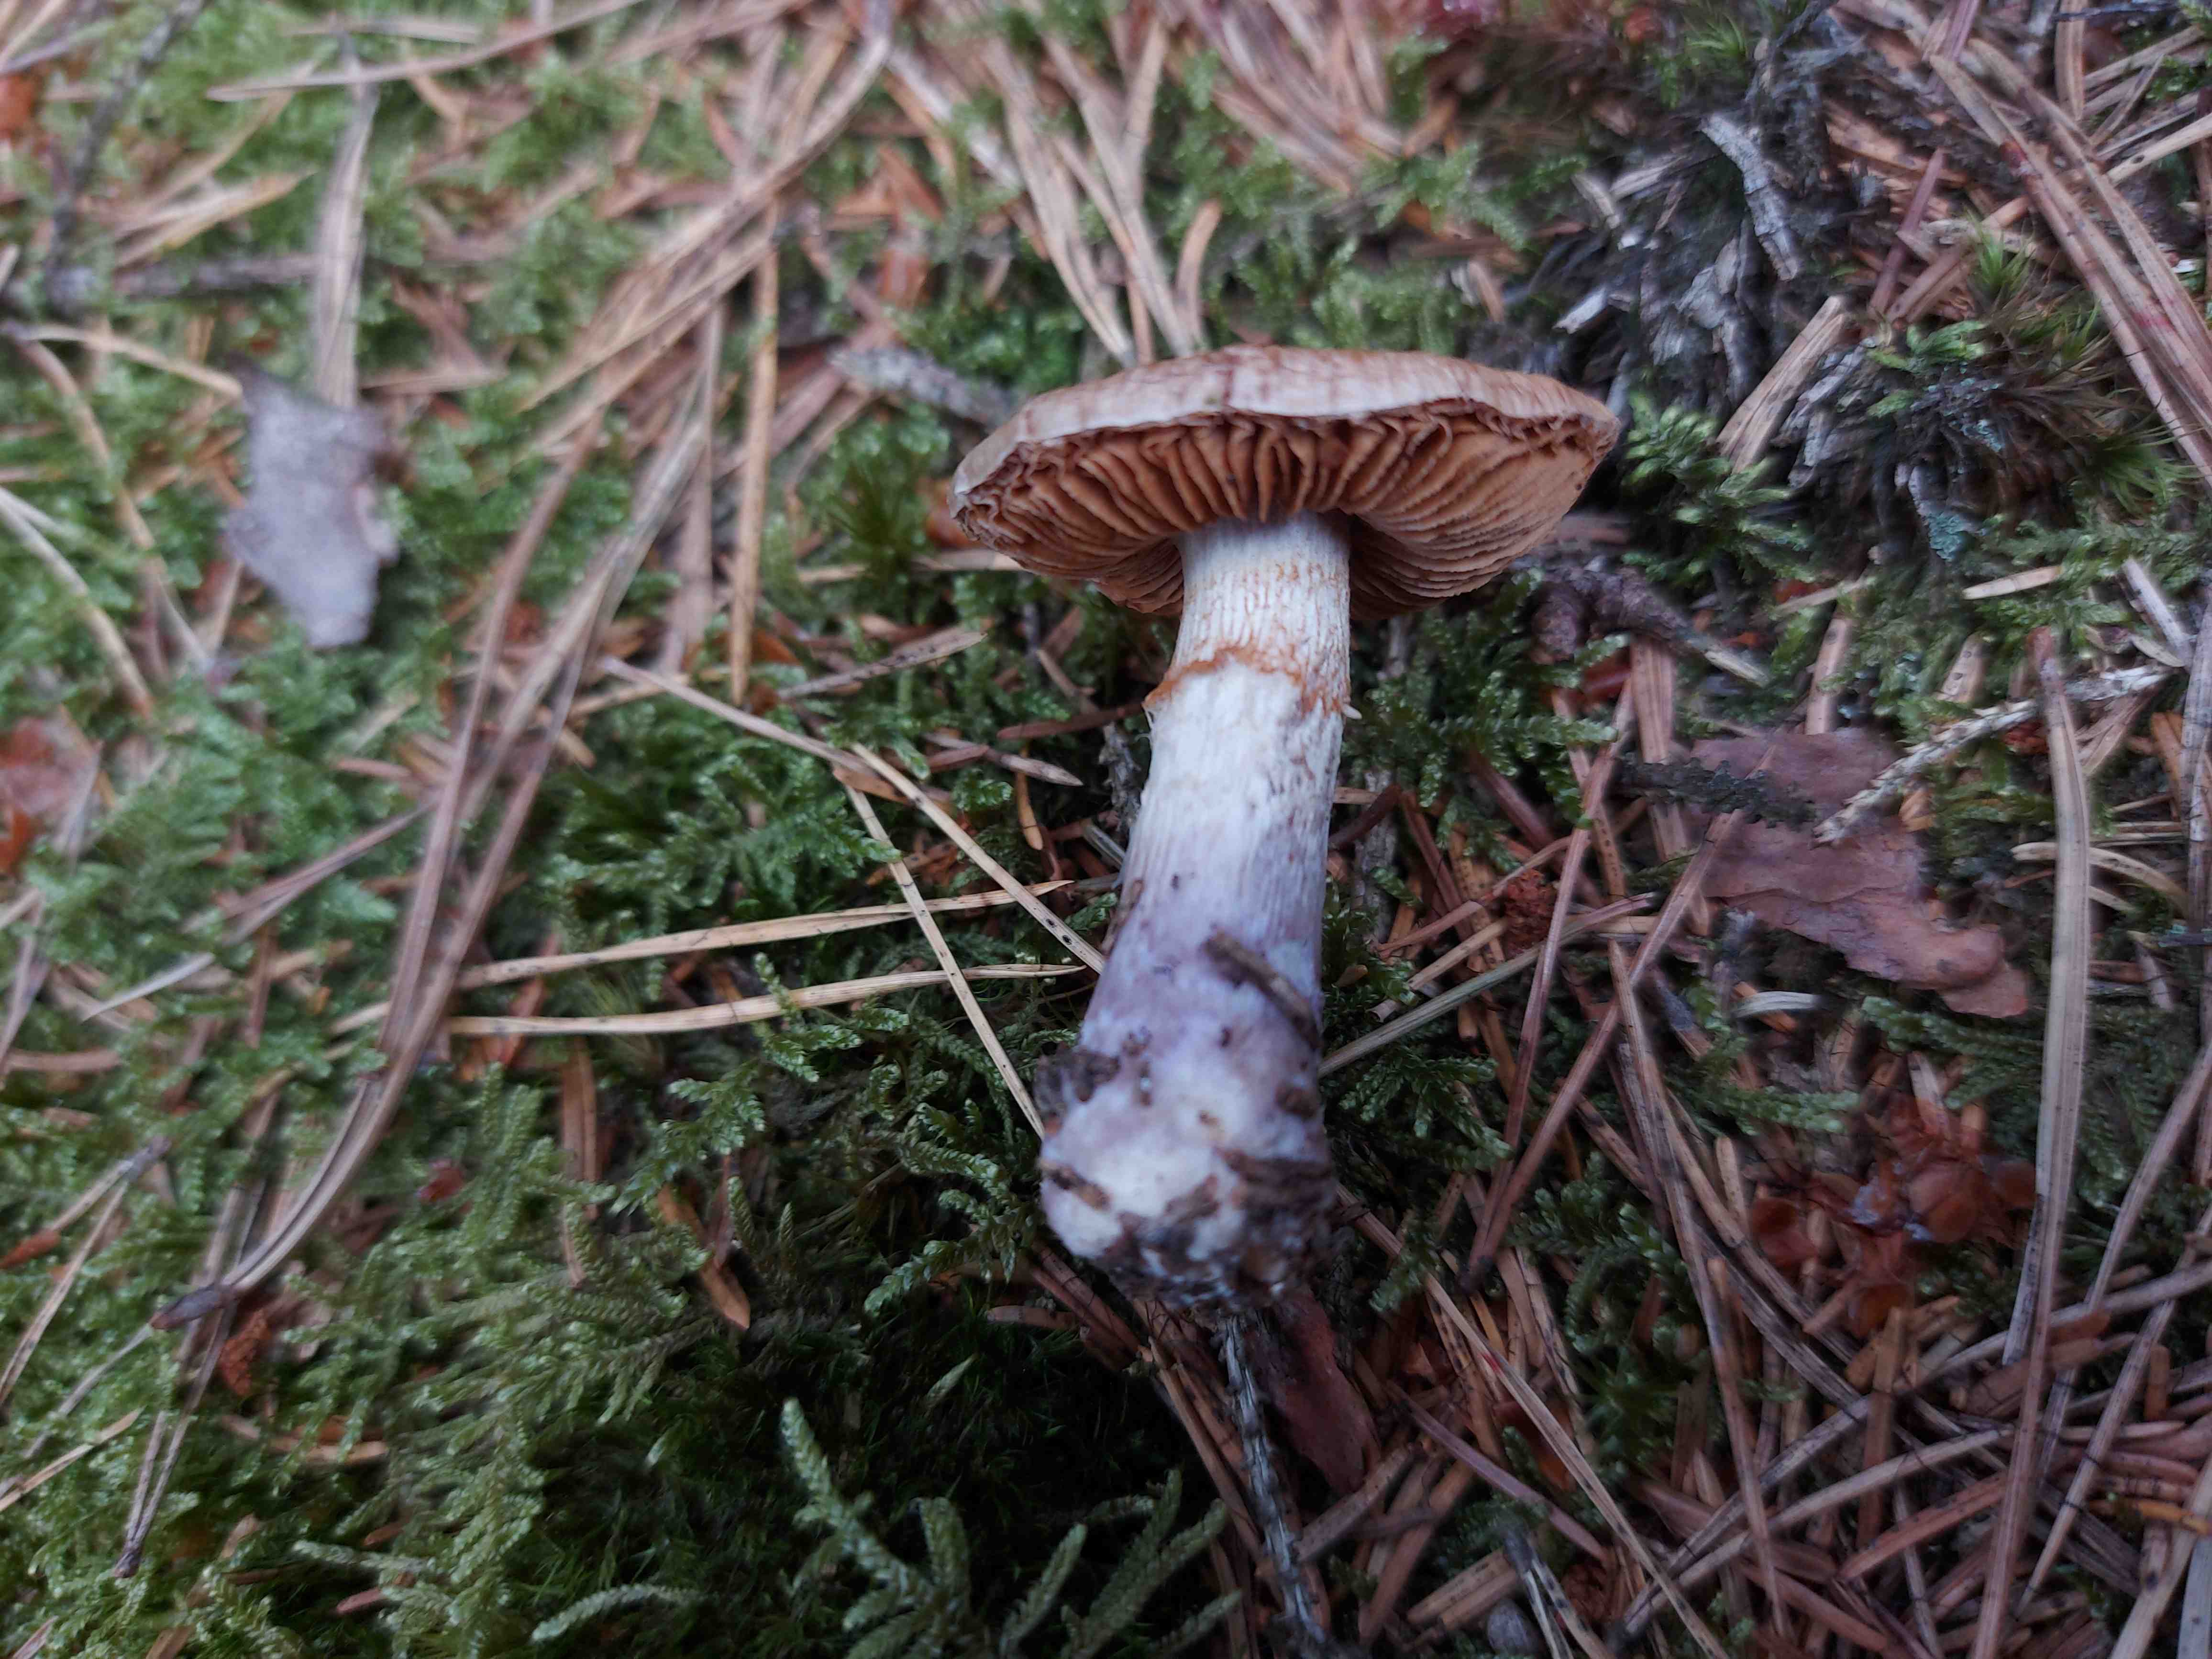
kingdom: Fungi
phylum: Basidiomycota
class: Agaricomycetes
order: Agaricales
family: Cortinariaceae
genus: Cortinarius
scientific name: Cortinarius stillatitius
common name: honningduftende slørhat
